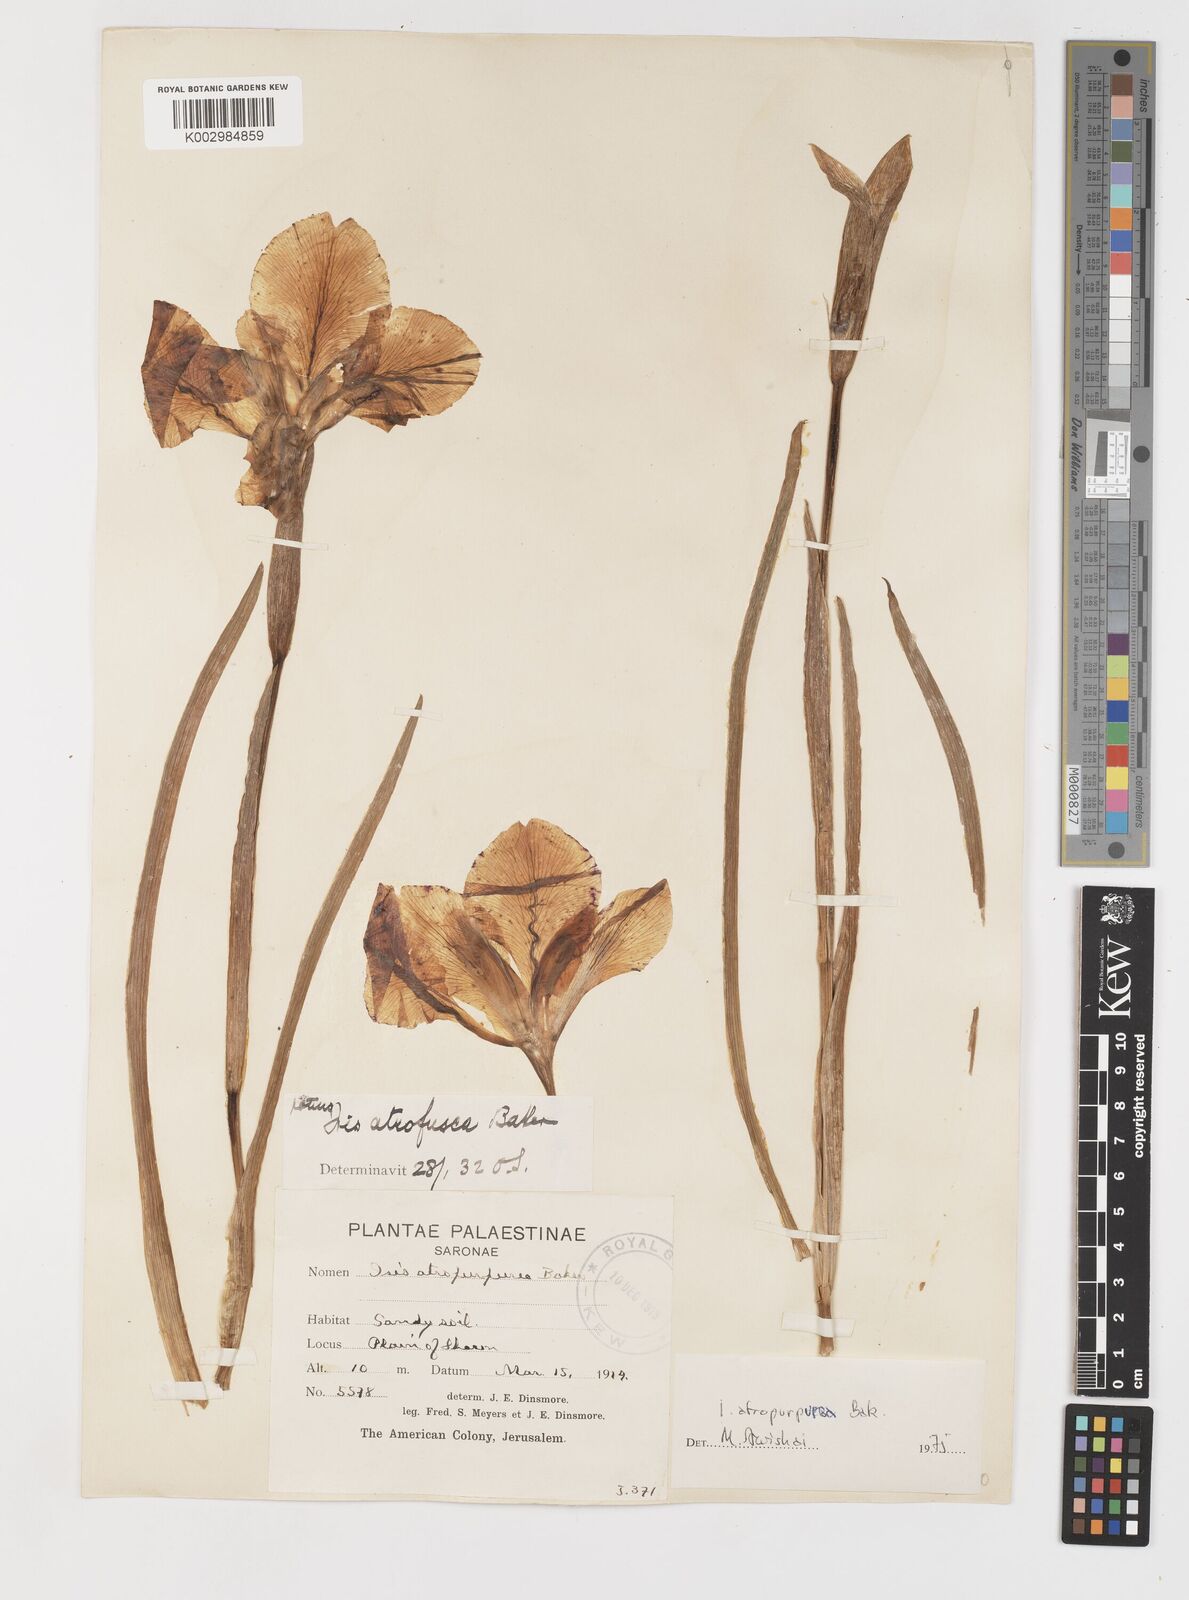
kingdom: Plantae
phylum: Tracheophyta
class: Liliopsida
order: Asparagales
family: Iridaceae
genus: Iris
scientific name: Iris atropurpurea
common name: Coastal iris
